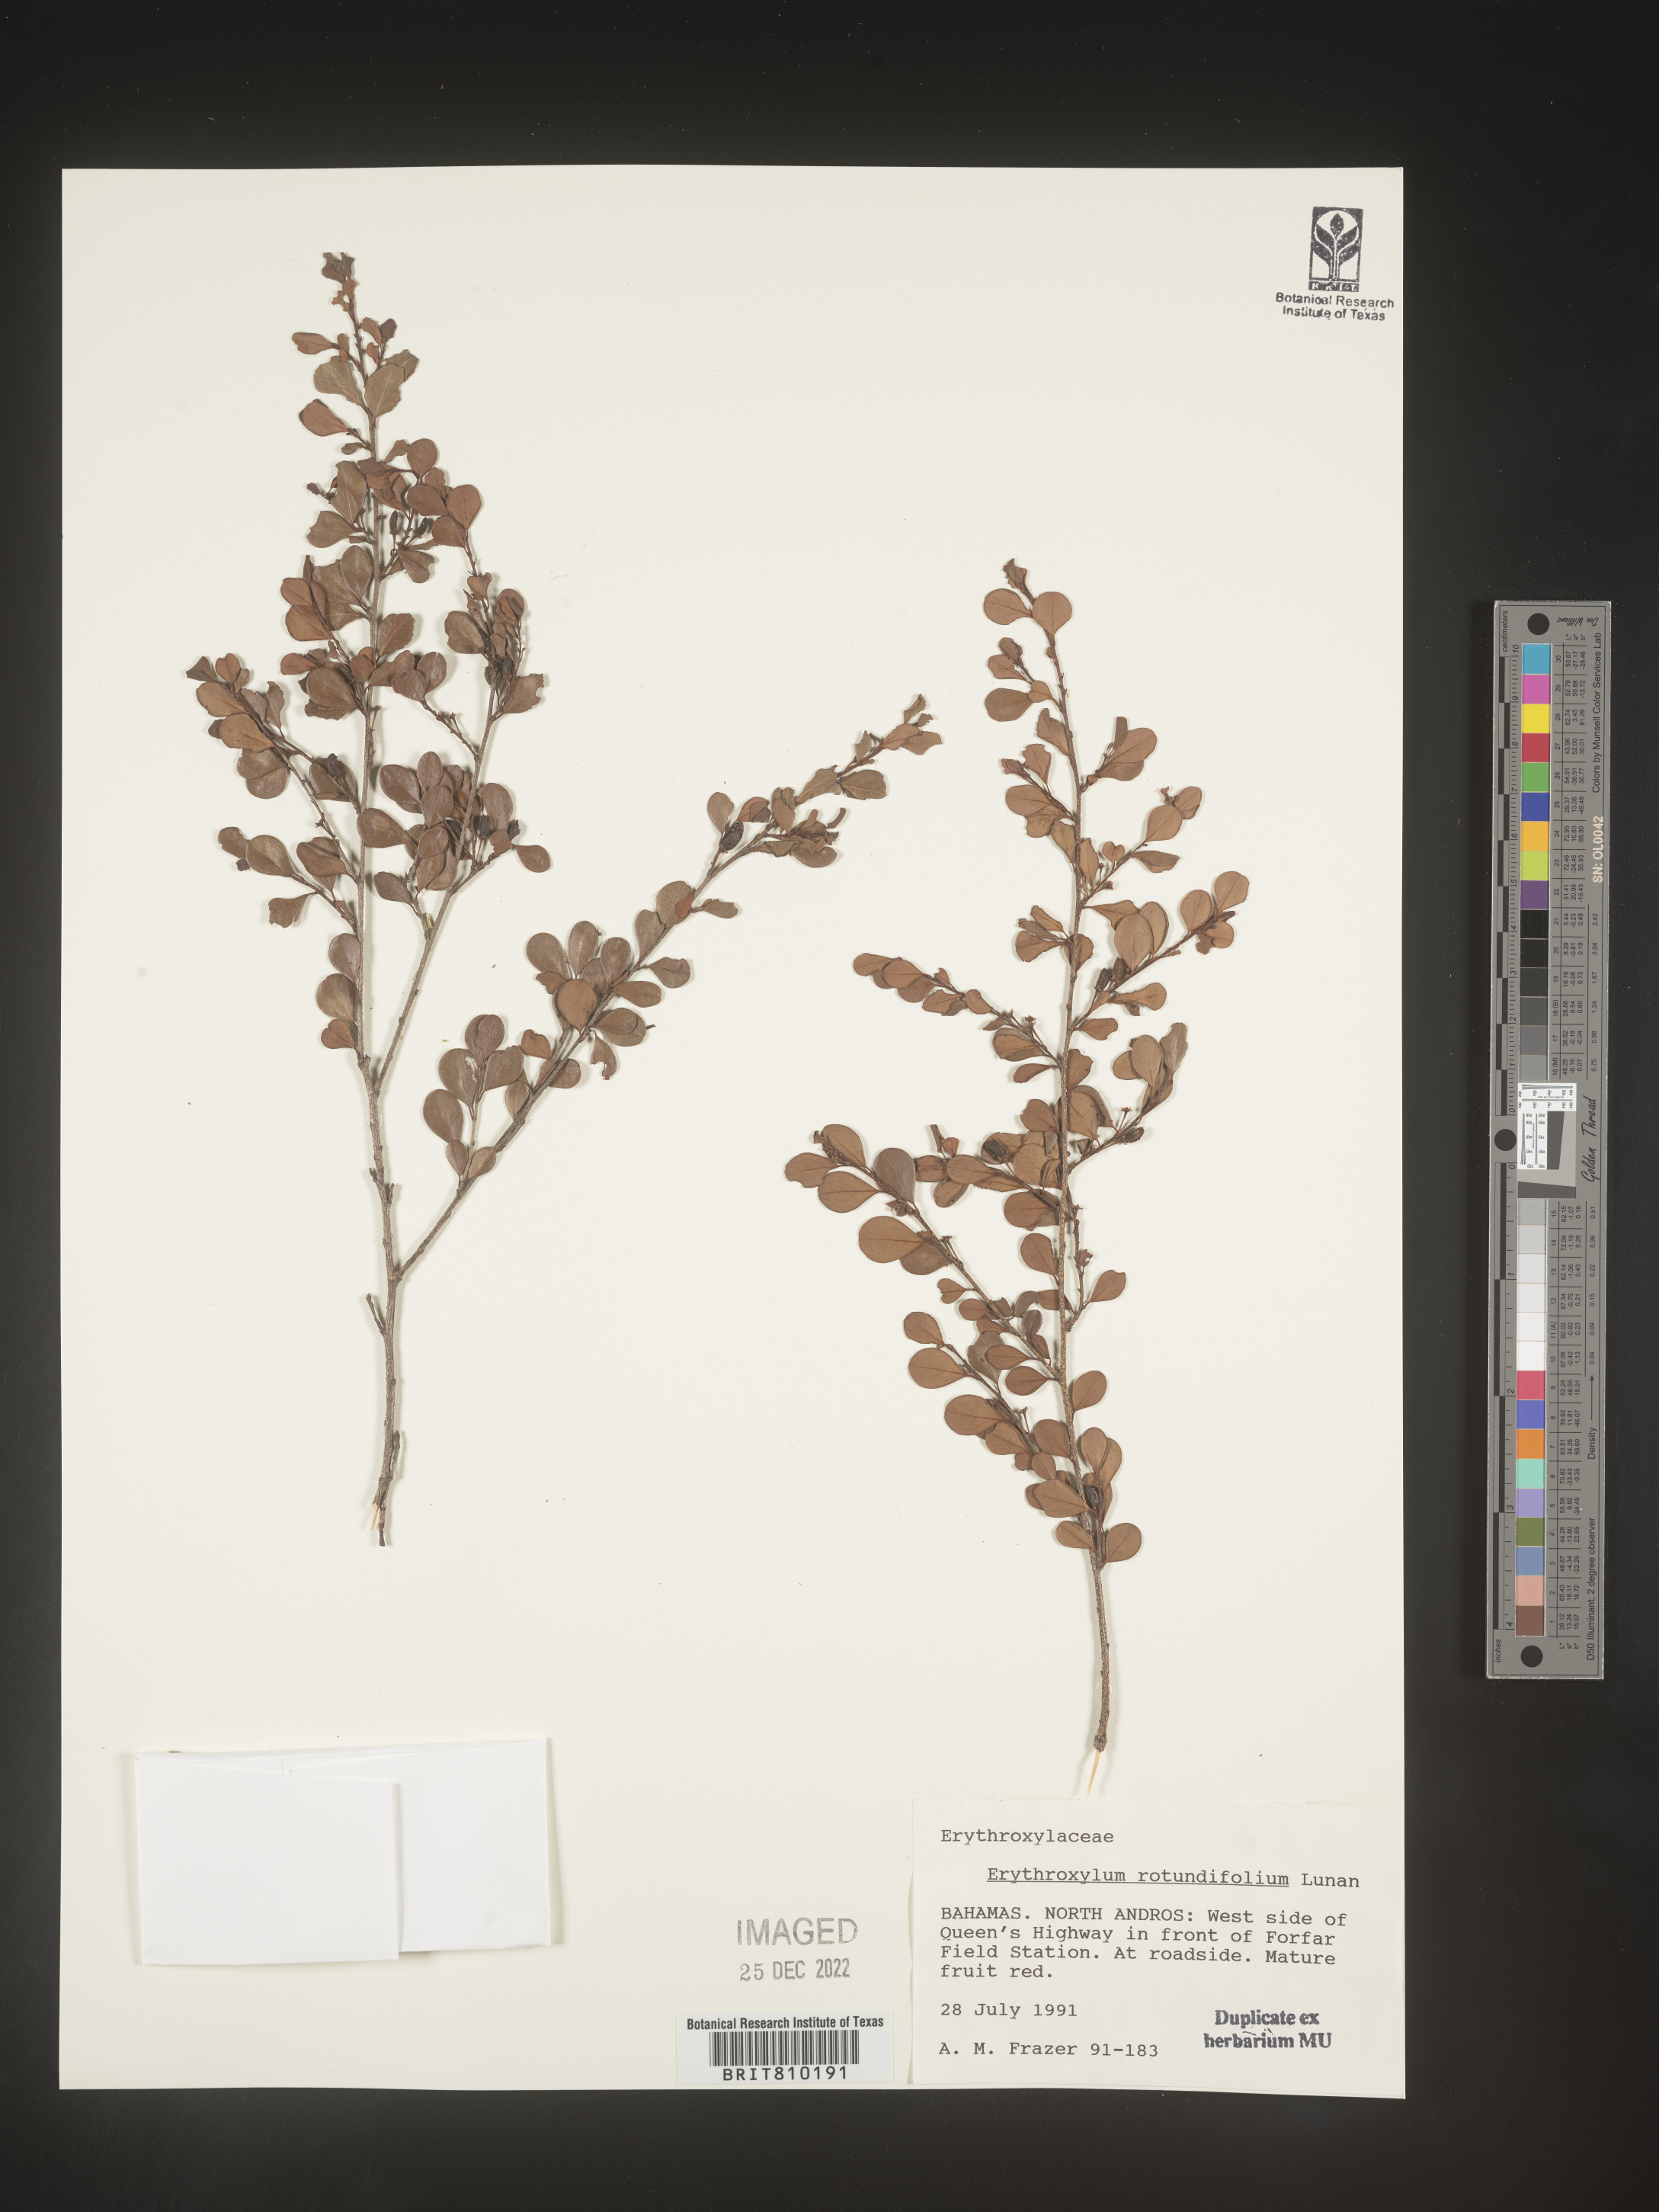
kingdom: Plantae
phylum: Tracheophyta
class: Magnoliopsida
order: Malpighiales
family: Erythroxylaceae
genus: Erythroxylum
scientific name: Erythroxylum
